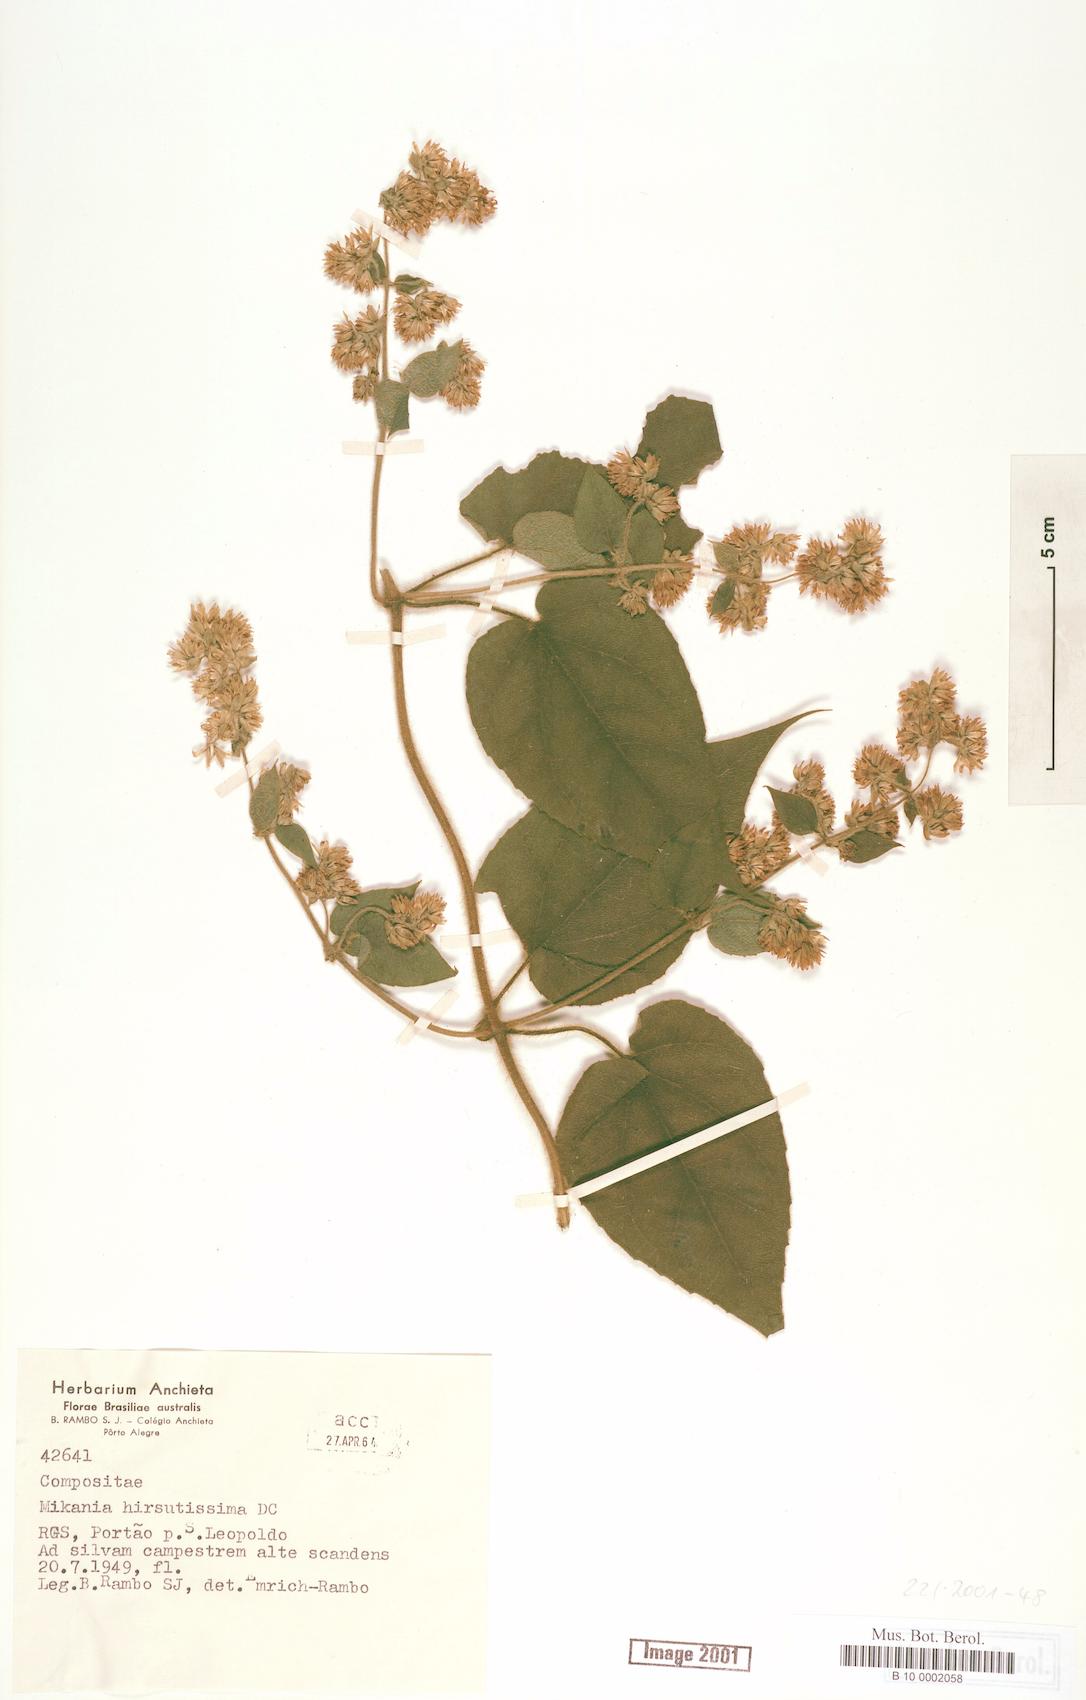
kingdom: Plantae
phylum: Tracheophyta
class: Magnoliopsida
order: Asterales
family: Asteraceae
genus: Mikania
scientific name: Mikania banisteriae
